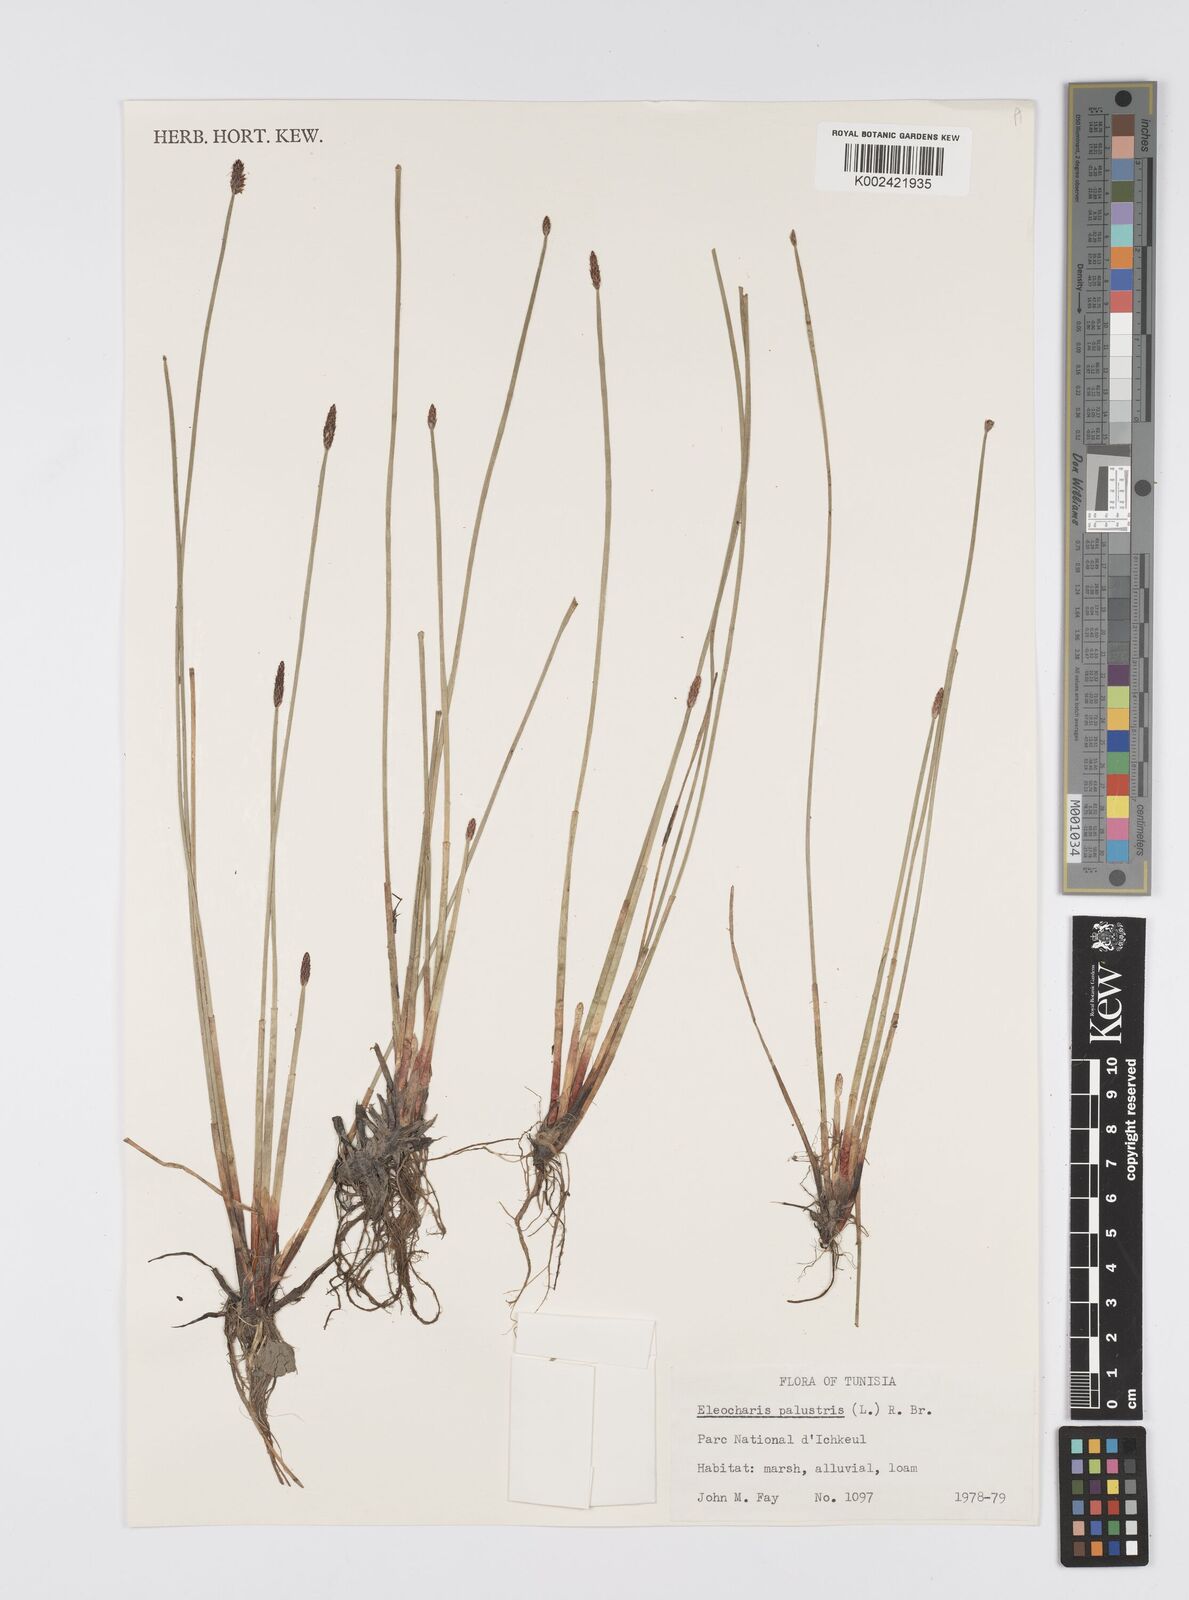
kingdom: Plantae
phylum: Tracheophyta
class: Liliopsida
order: Poales
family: Cyperaceae
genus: Eleocharis
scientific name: Eleocharis palustris
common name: Common spike-rush
